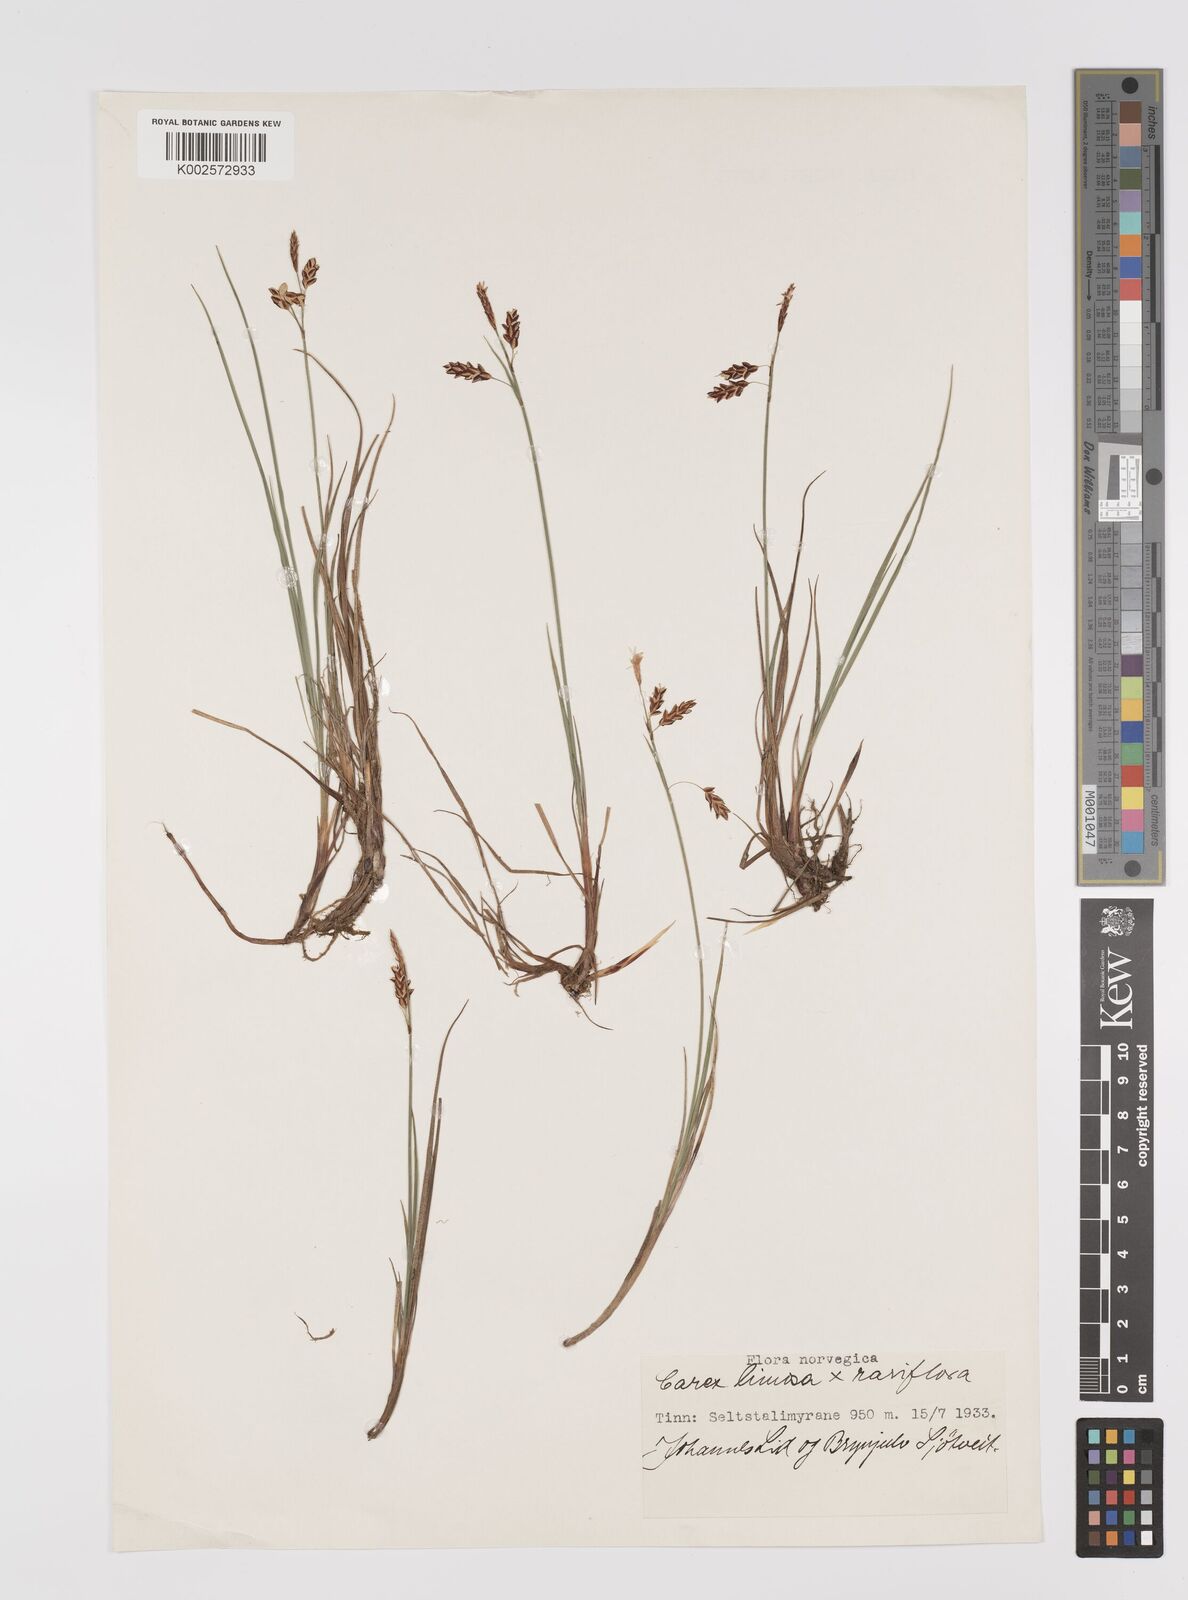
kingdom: Plantae
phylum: Tracheophyta
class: Liliopsida
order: Poales
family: Cyperaceae
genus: Carex
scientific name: Carex rariflora
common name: Loose-flowered alpine sedge
